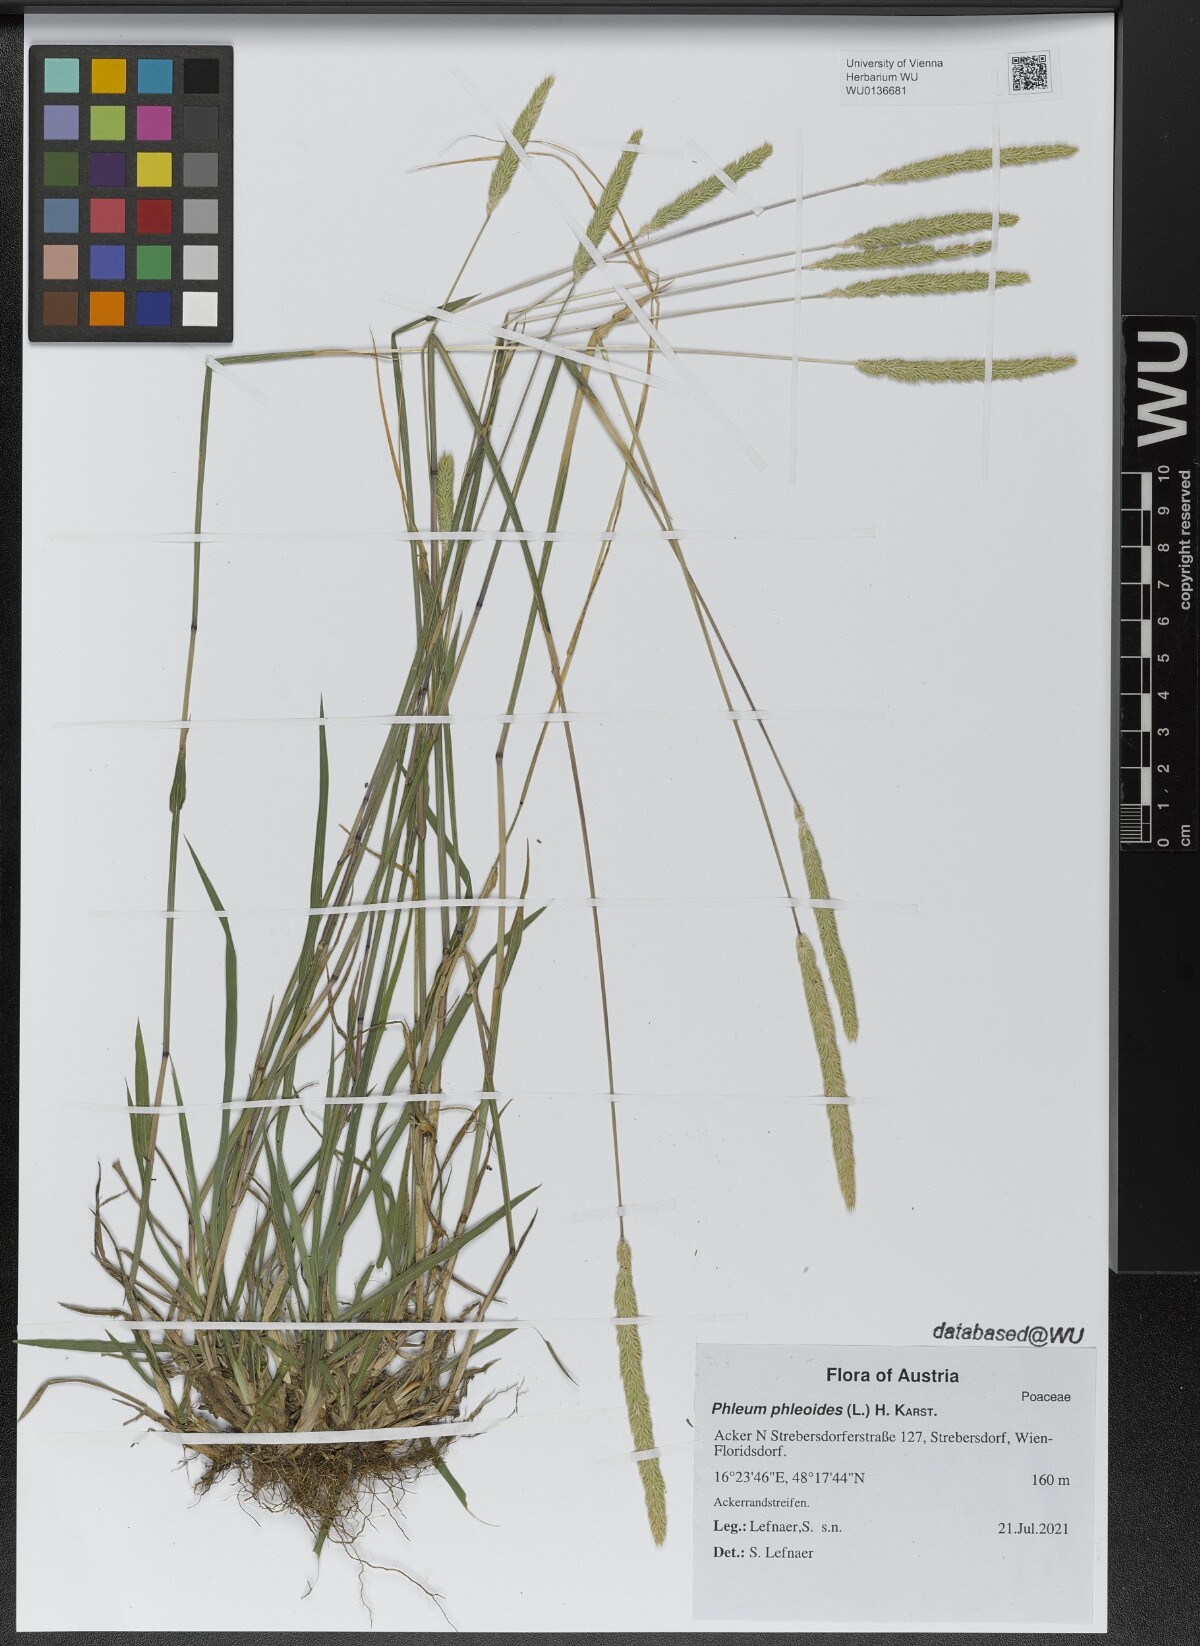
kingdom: Plantae
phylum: Tracheophyta
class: Liliopsida
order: Poales
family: Poaceae
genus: Phleum
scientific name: Phleum phleoides
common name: Purple-stem cat's-tail
